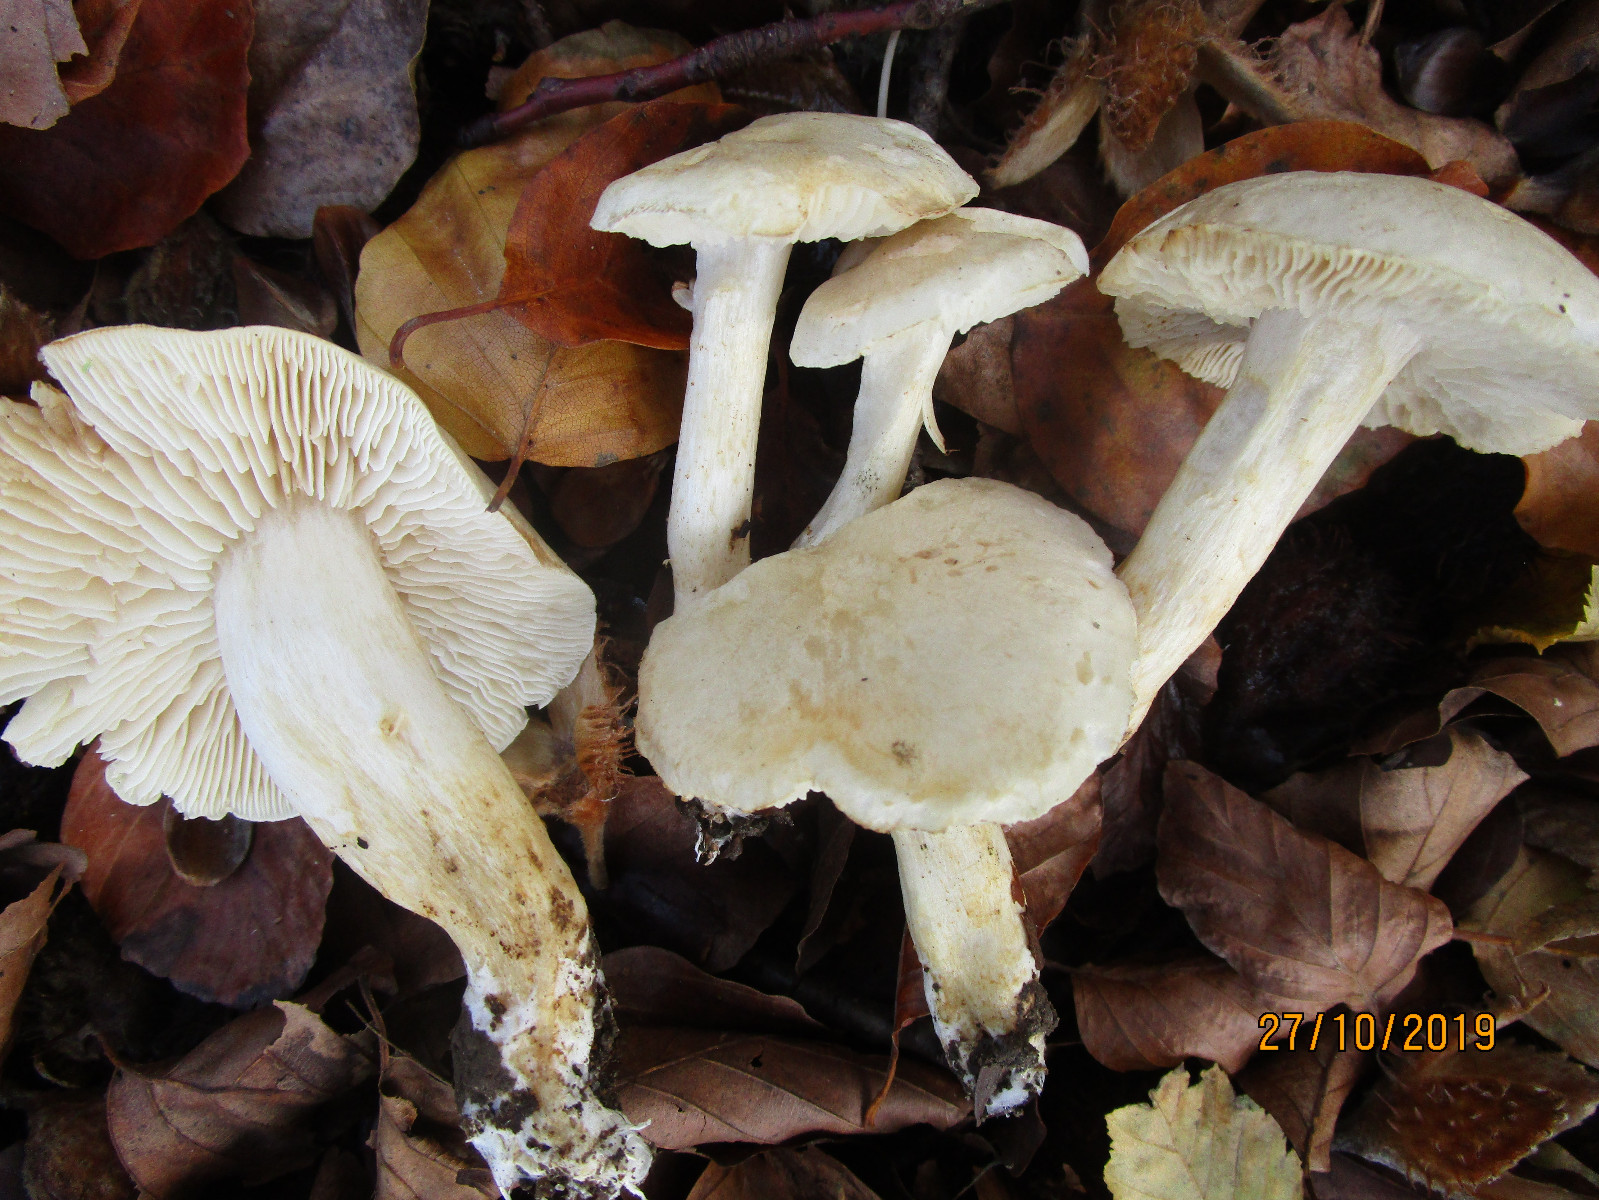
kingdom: Fungi
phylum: Basidiomycota
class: Agaricomycetes
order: Agaricales
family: Tricholomataceae
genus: Tricholoma
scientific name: Tricholoma lascivum
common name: stinkende ridderhat
